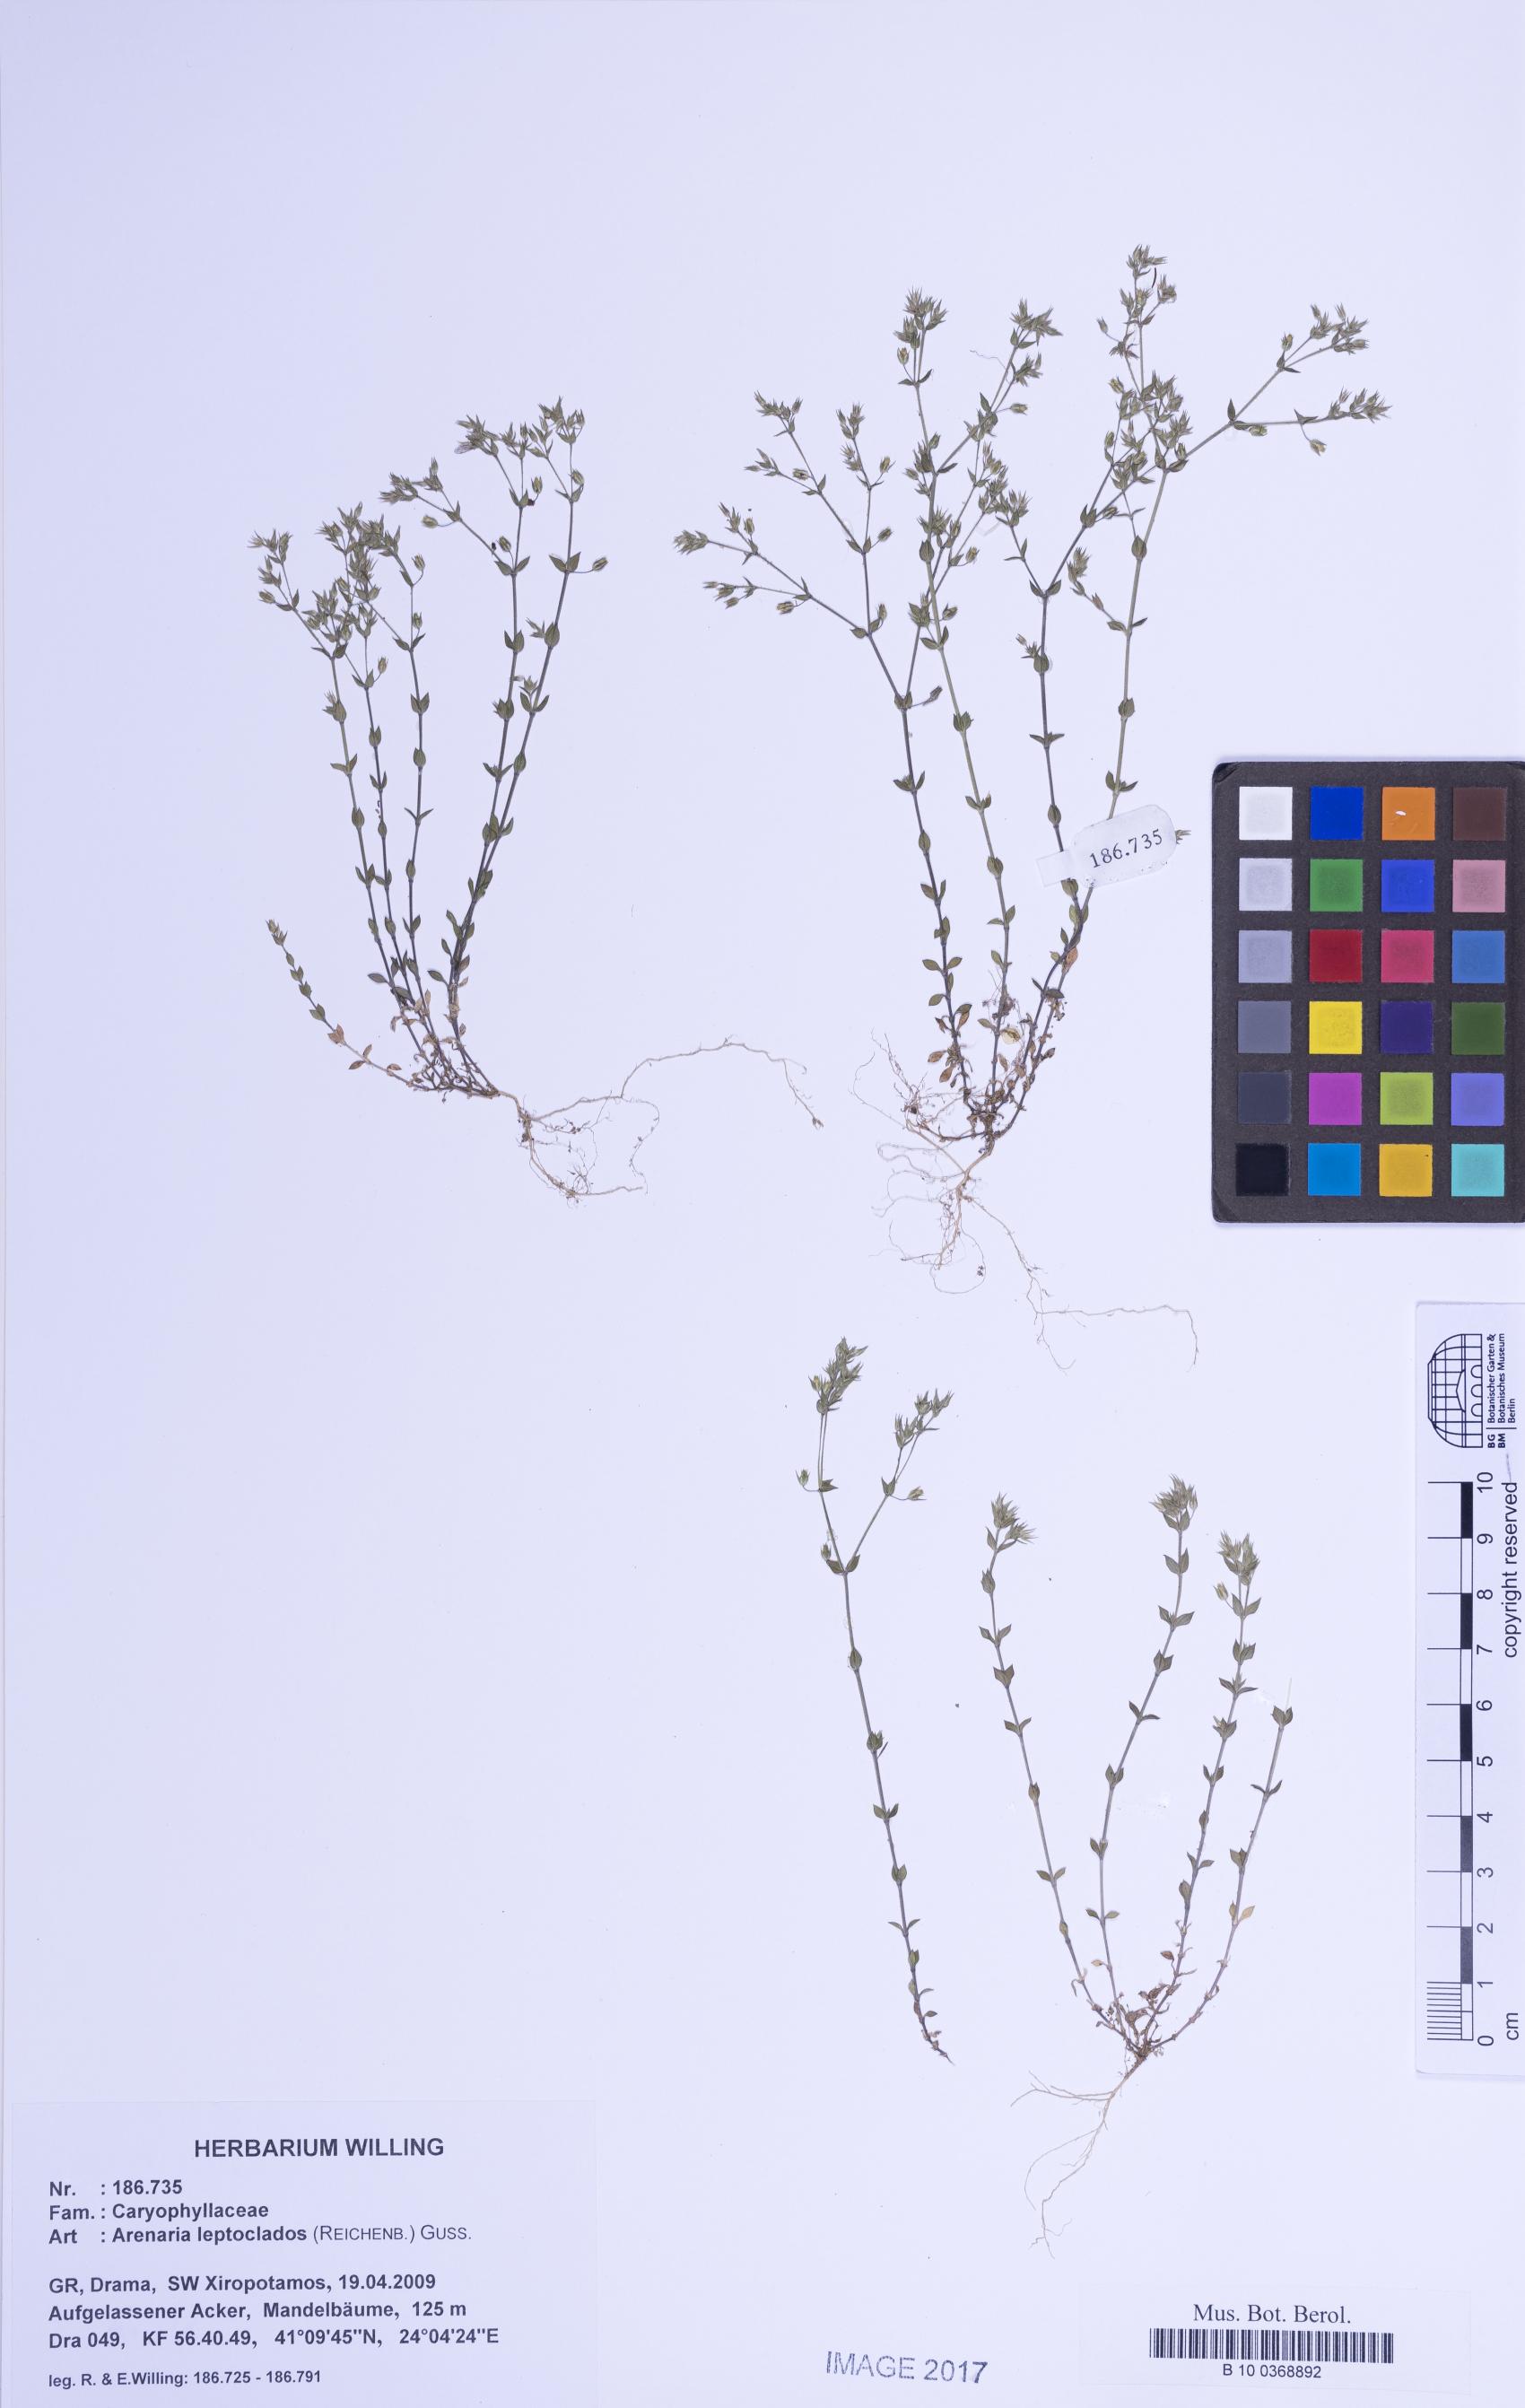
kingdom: Plantae
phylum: Tracheophyta
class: Magnoliopsida
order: Caryophyllales
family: Caryophyllaceae
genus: Arenaria
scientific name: Arenaria leptoclados
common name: Thyme-leaved sandwort
